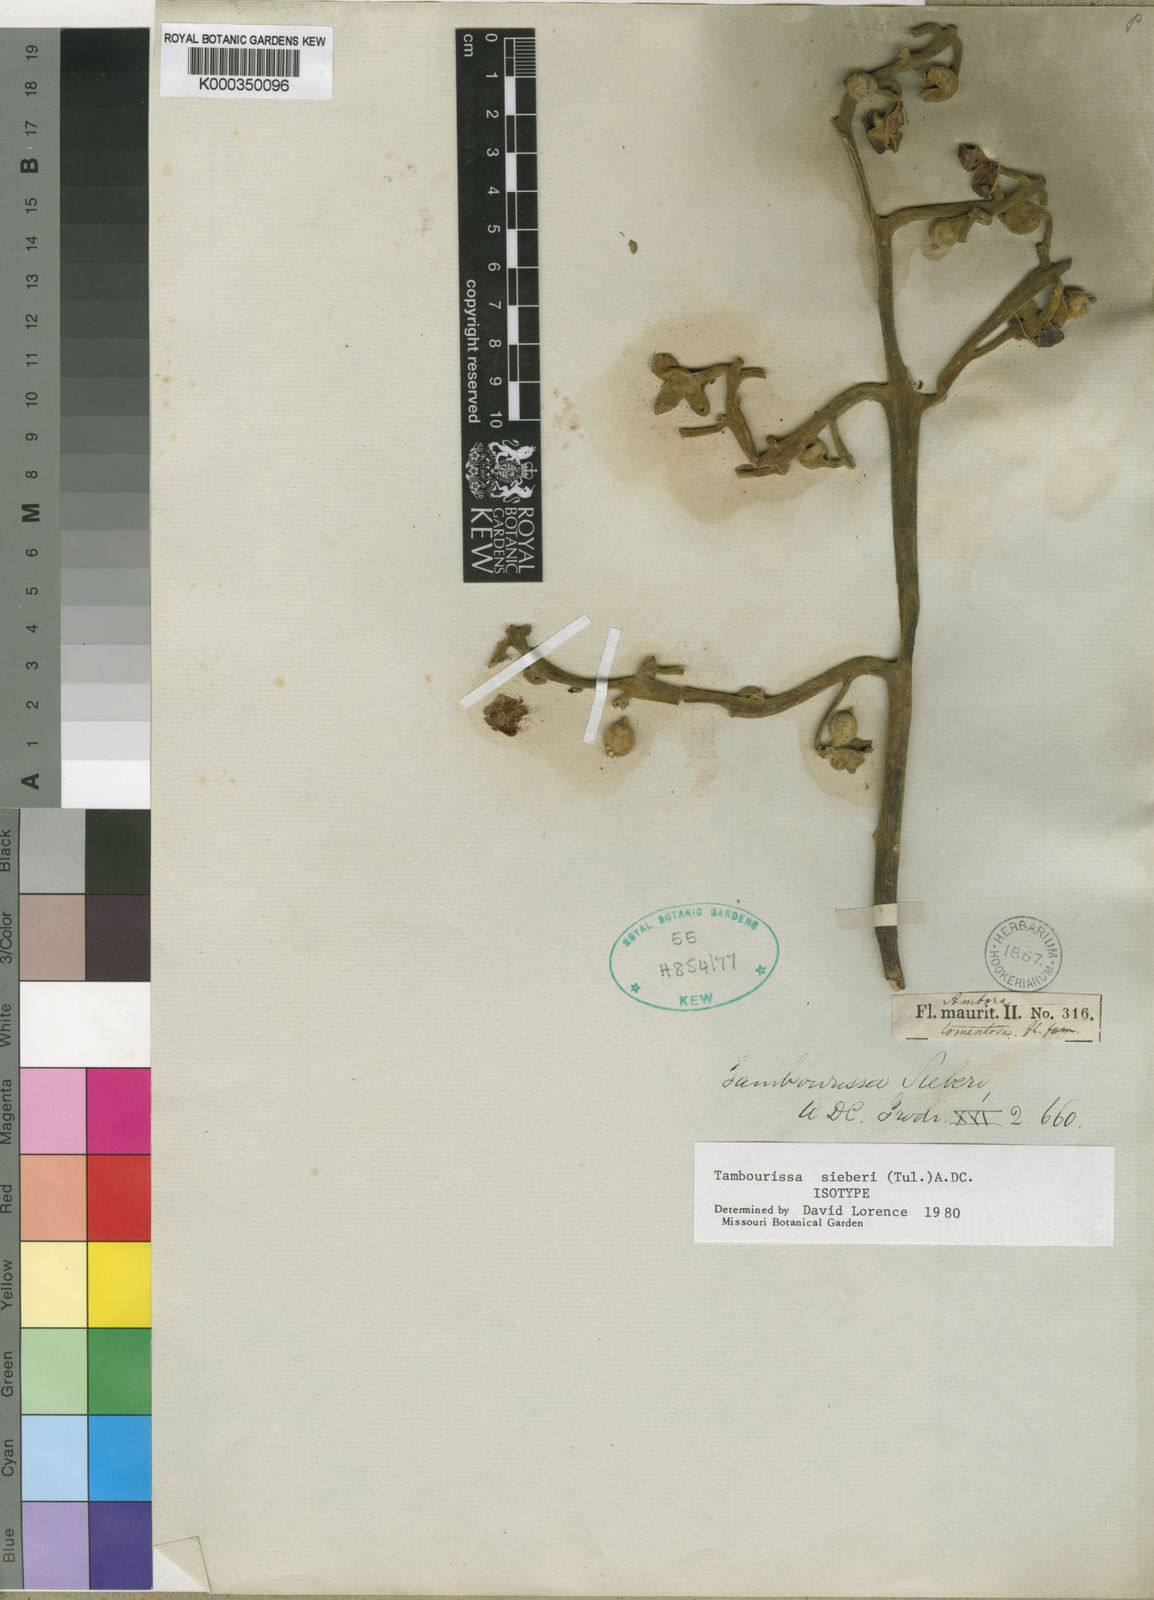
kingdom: Plantae
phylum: Tracheophyta
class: Magnoliopsida
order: Laurales
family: Monimiaceae
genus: Tambourissa
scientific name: Tambourissa sieberi
